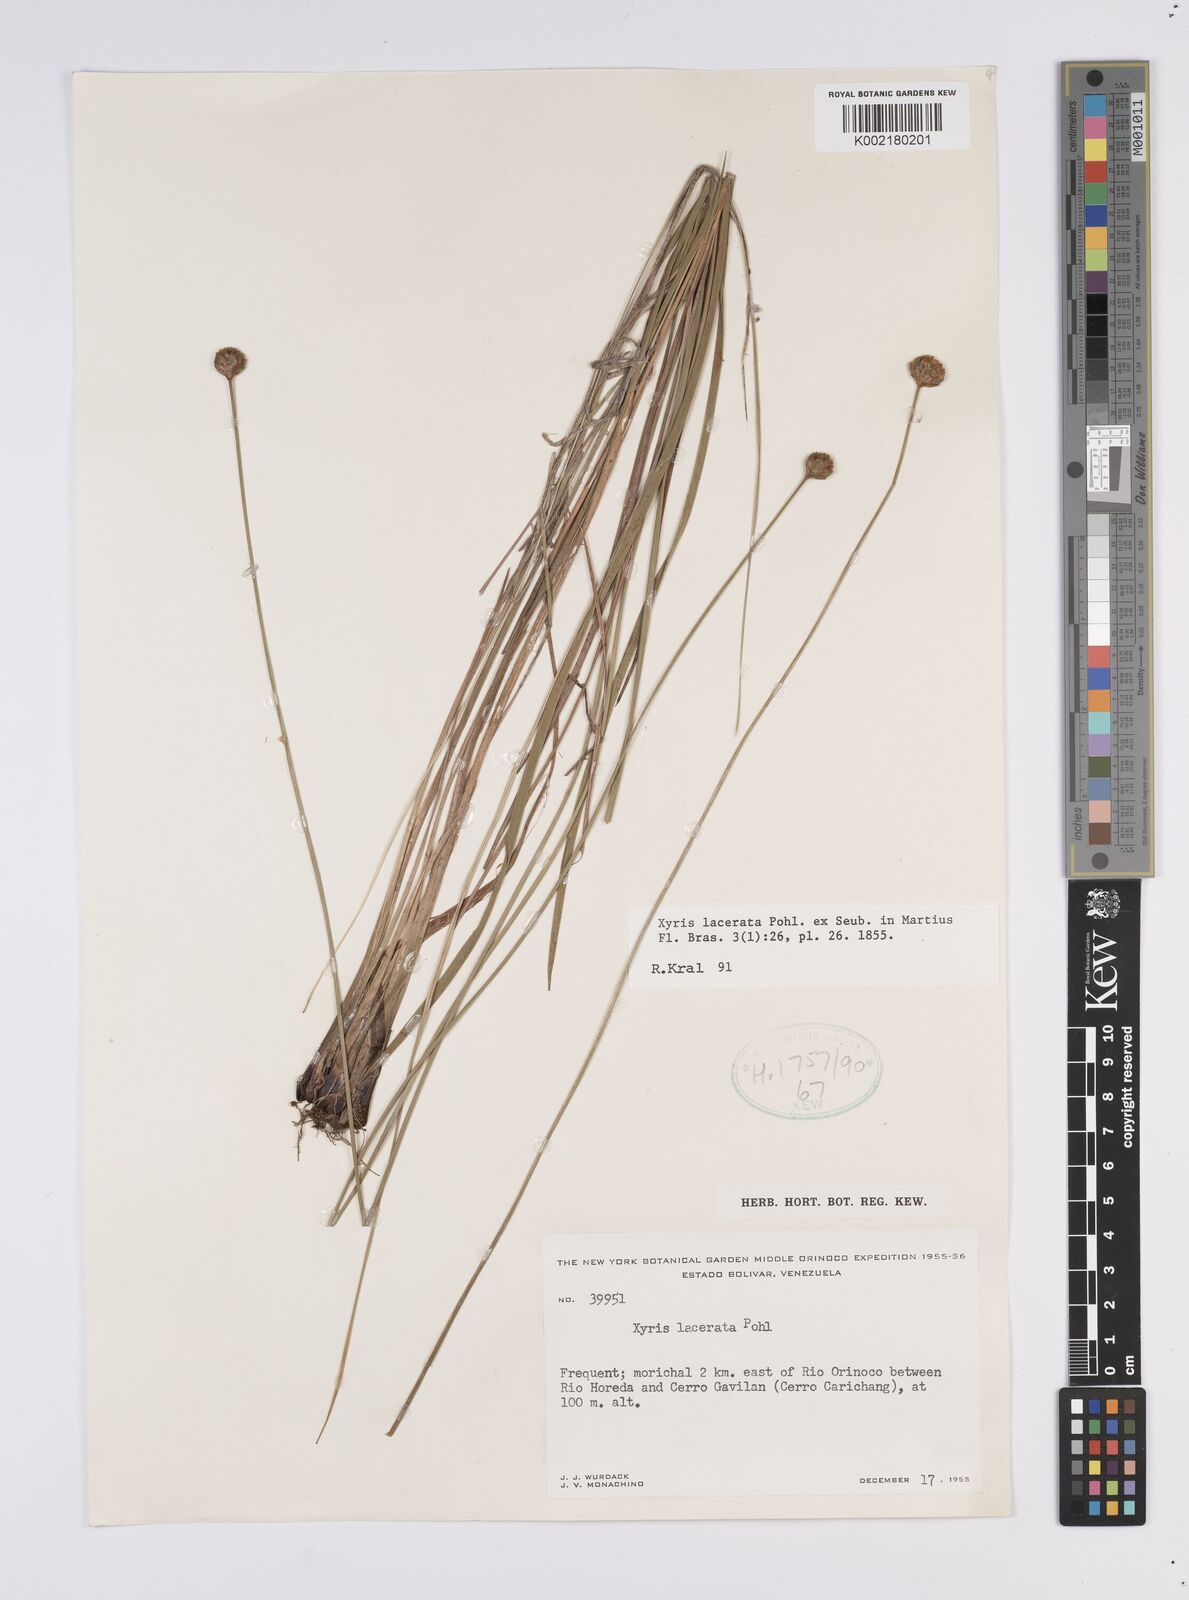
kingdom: Plantae
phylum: Tracheophyta
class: Liliopsida
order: Poales
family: Xyridaceae
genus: Xyris
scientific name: Xyris lacerata
